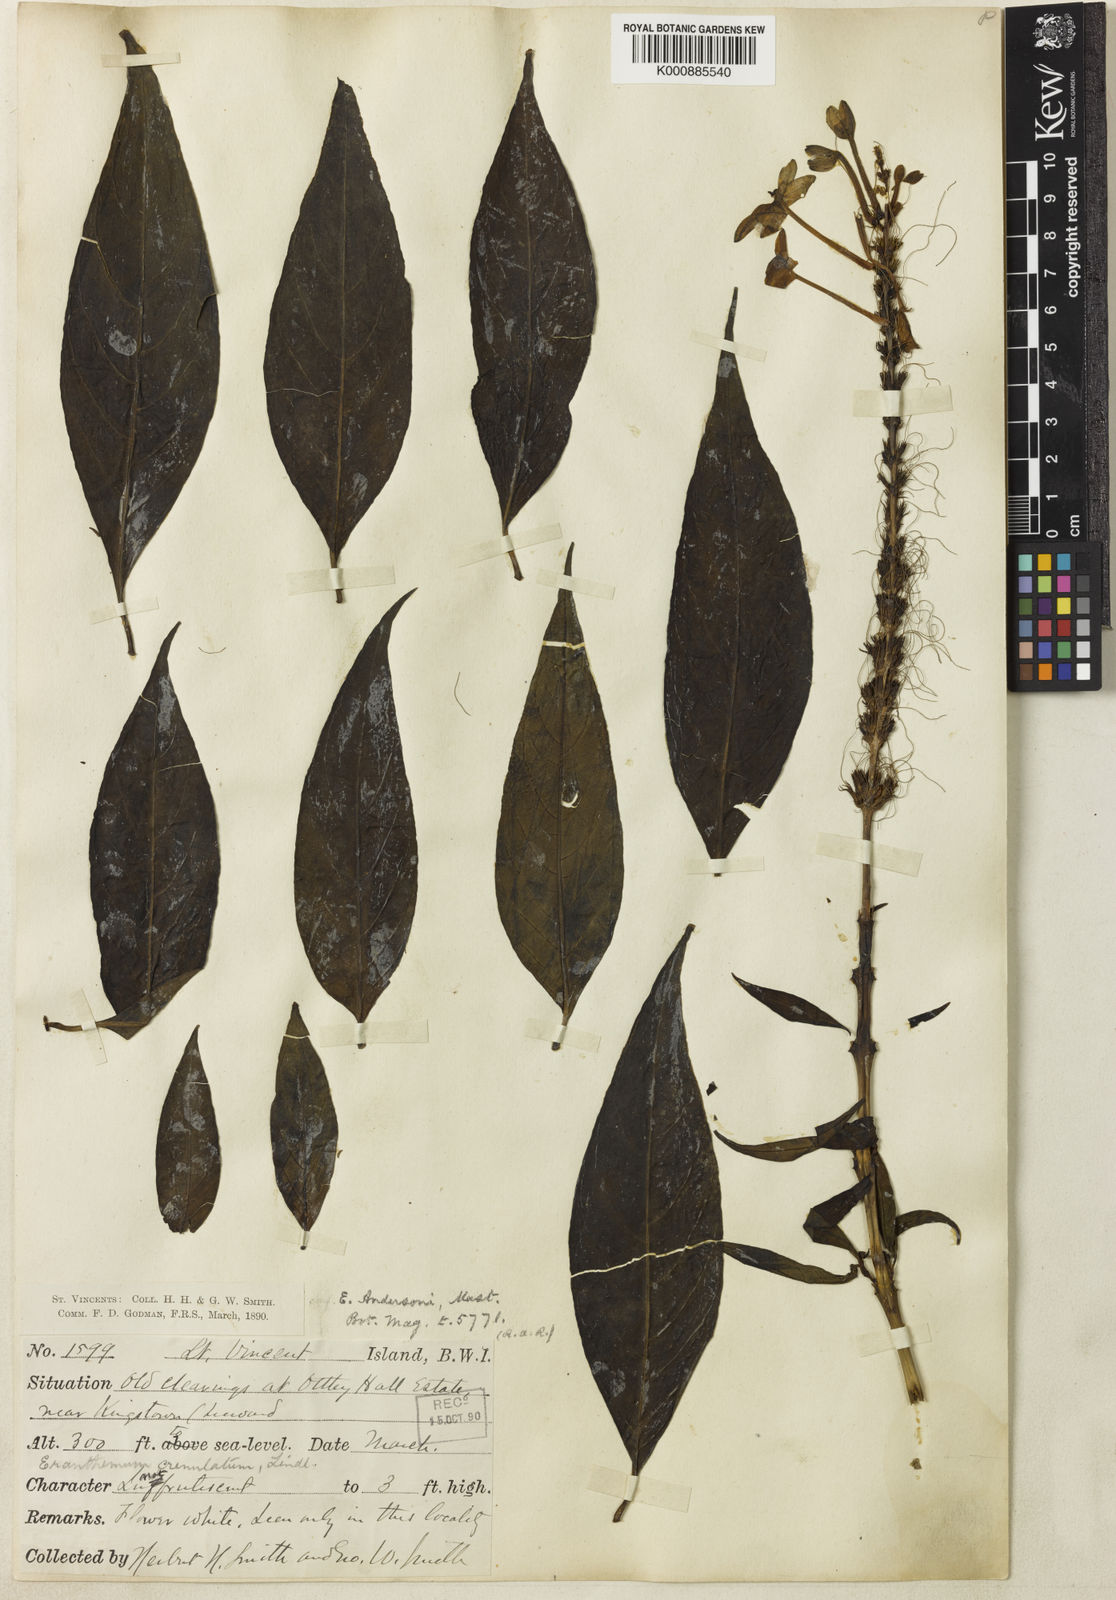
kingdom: Plantae
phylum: Tracheophyta
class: Magnoliopsida
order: Lamiales
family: Acanthaceae
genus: Pseuderanthemum
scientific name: Pseuderanthemum graciliflorum
